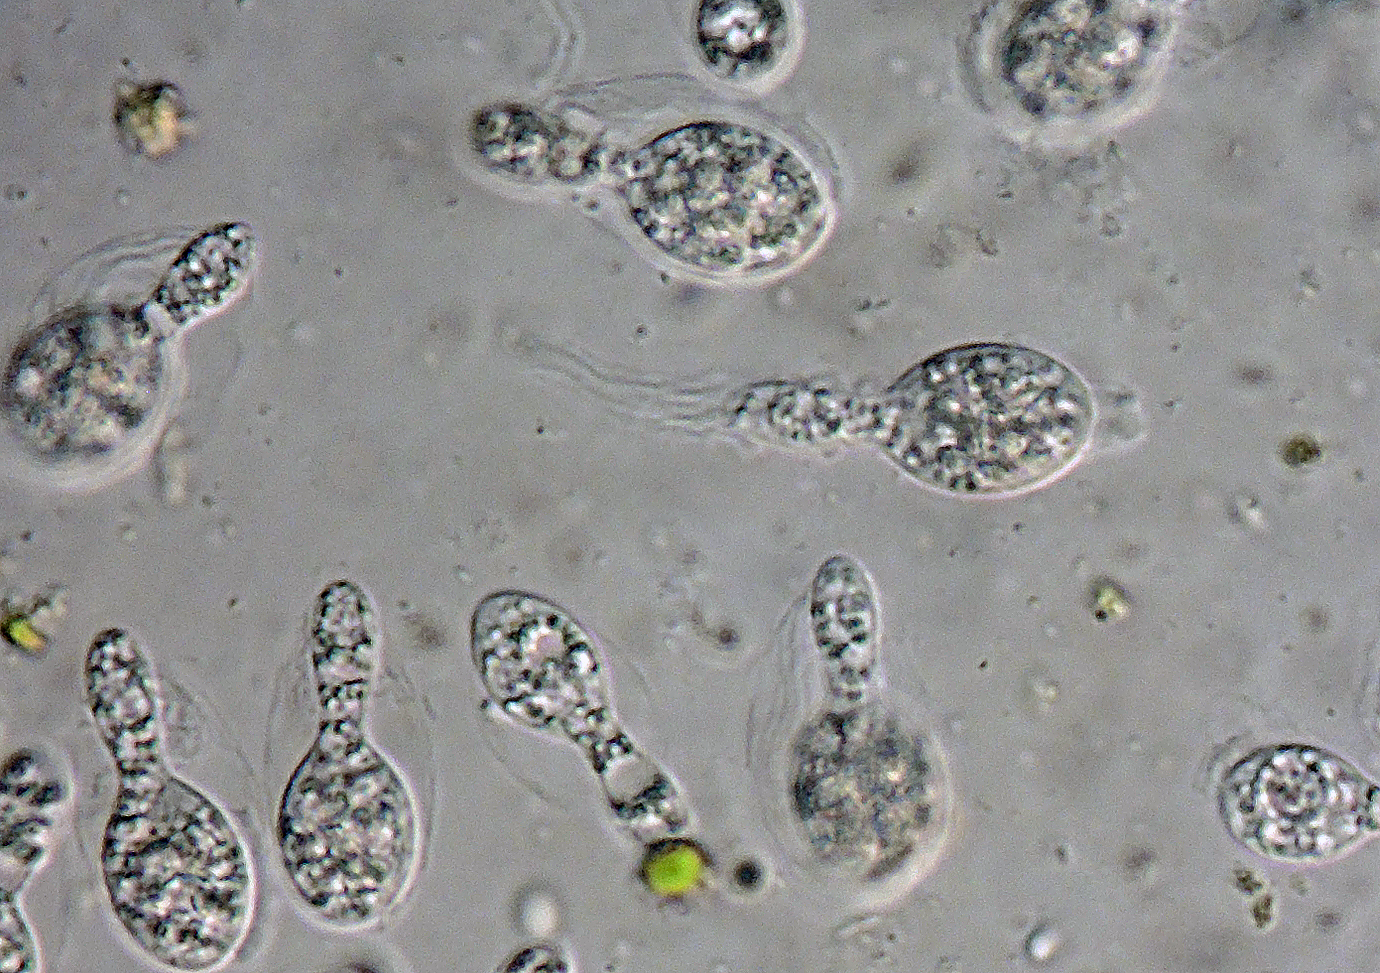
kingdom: Fungi
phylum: Ascomycota
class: Sordariomycetes
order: Sordariales
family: Podosporaceae
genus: Podospora
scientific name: Podospora granulostriata
